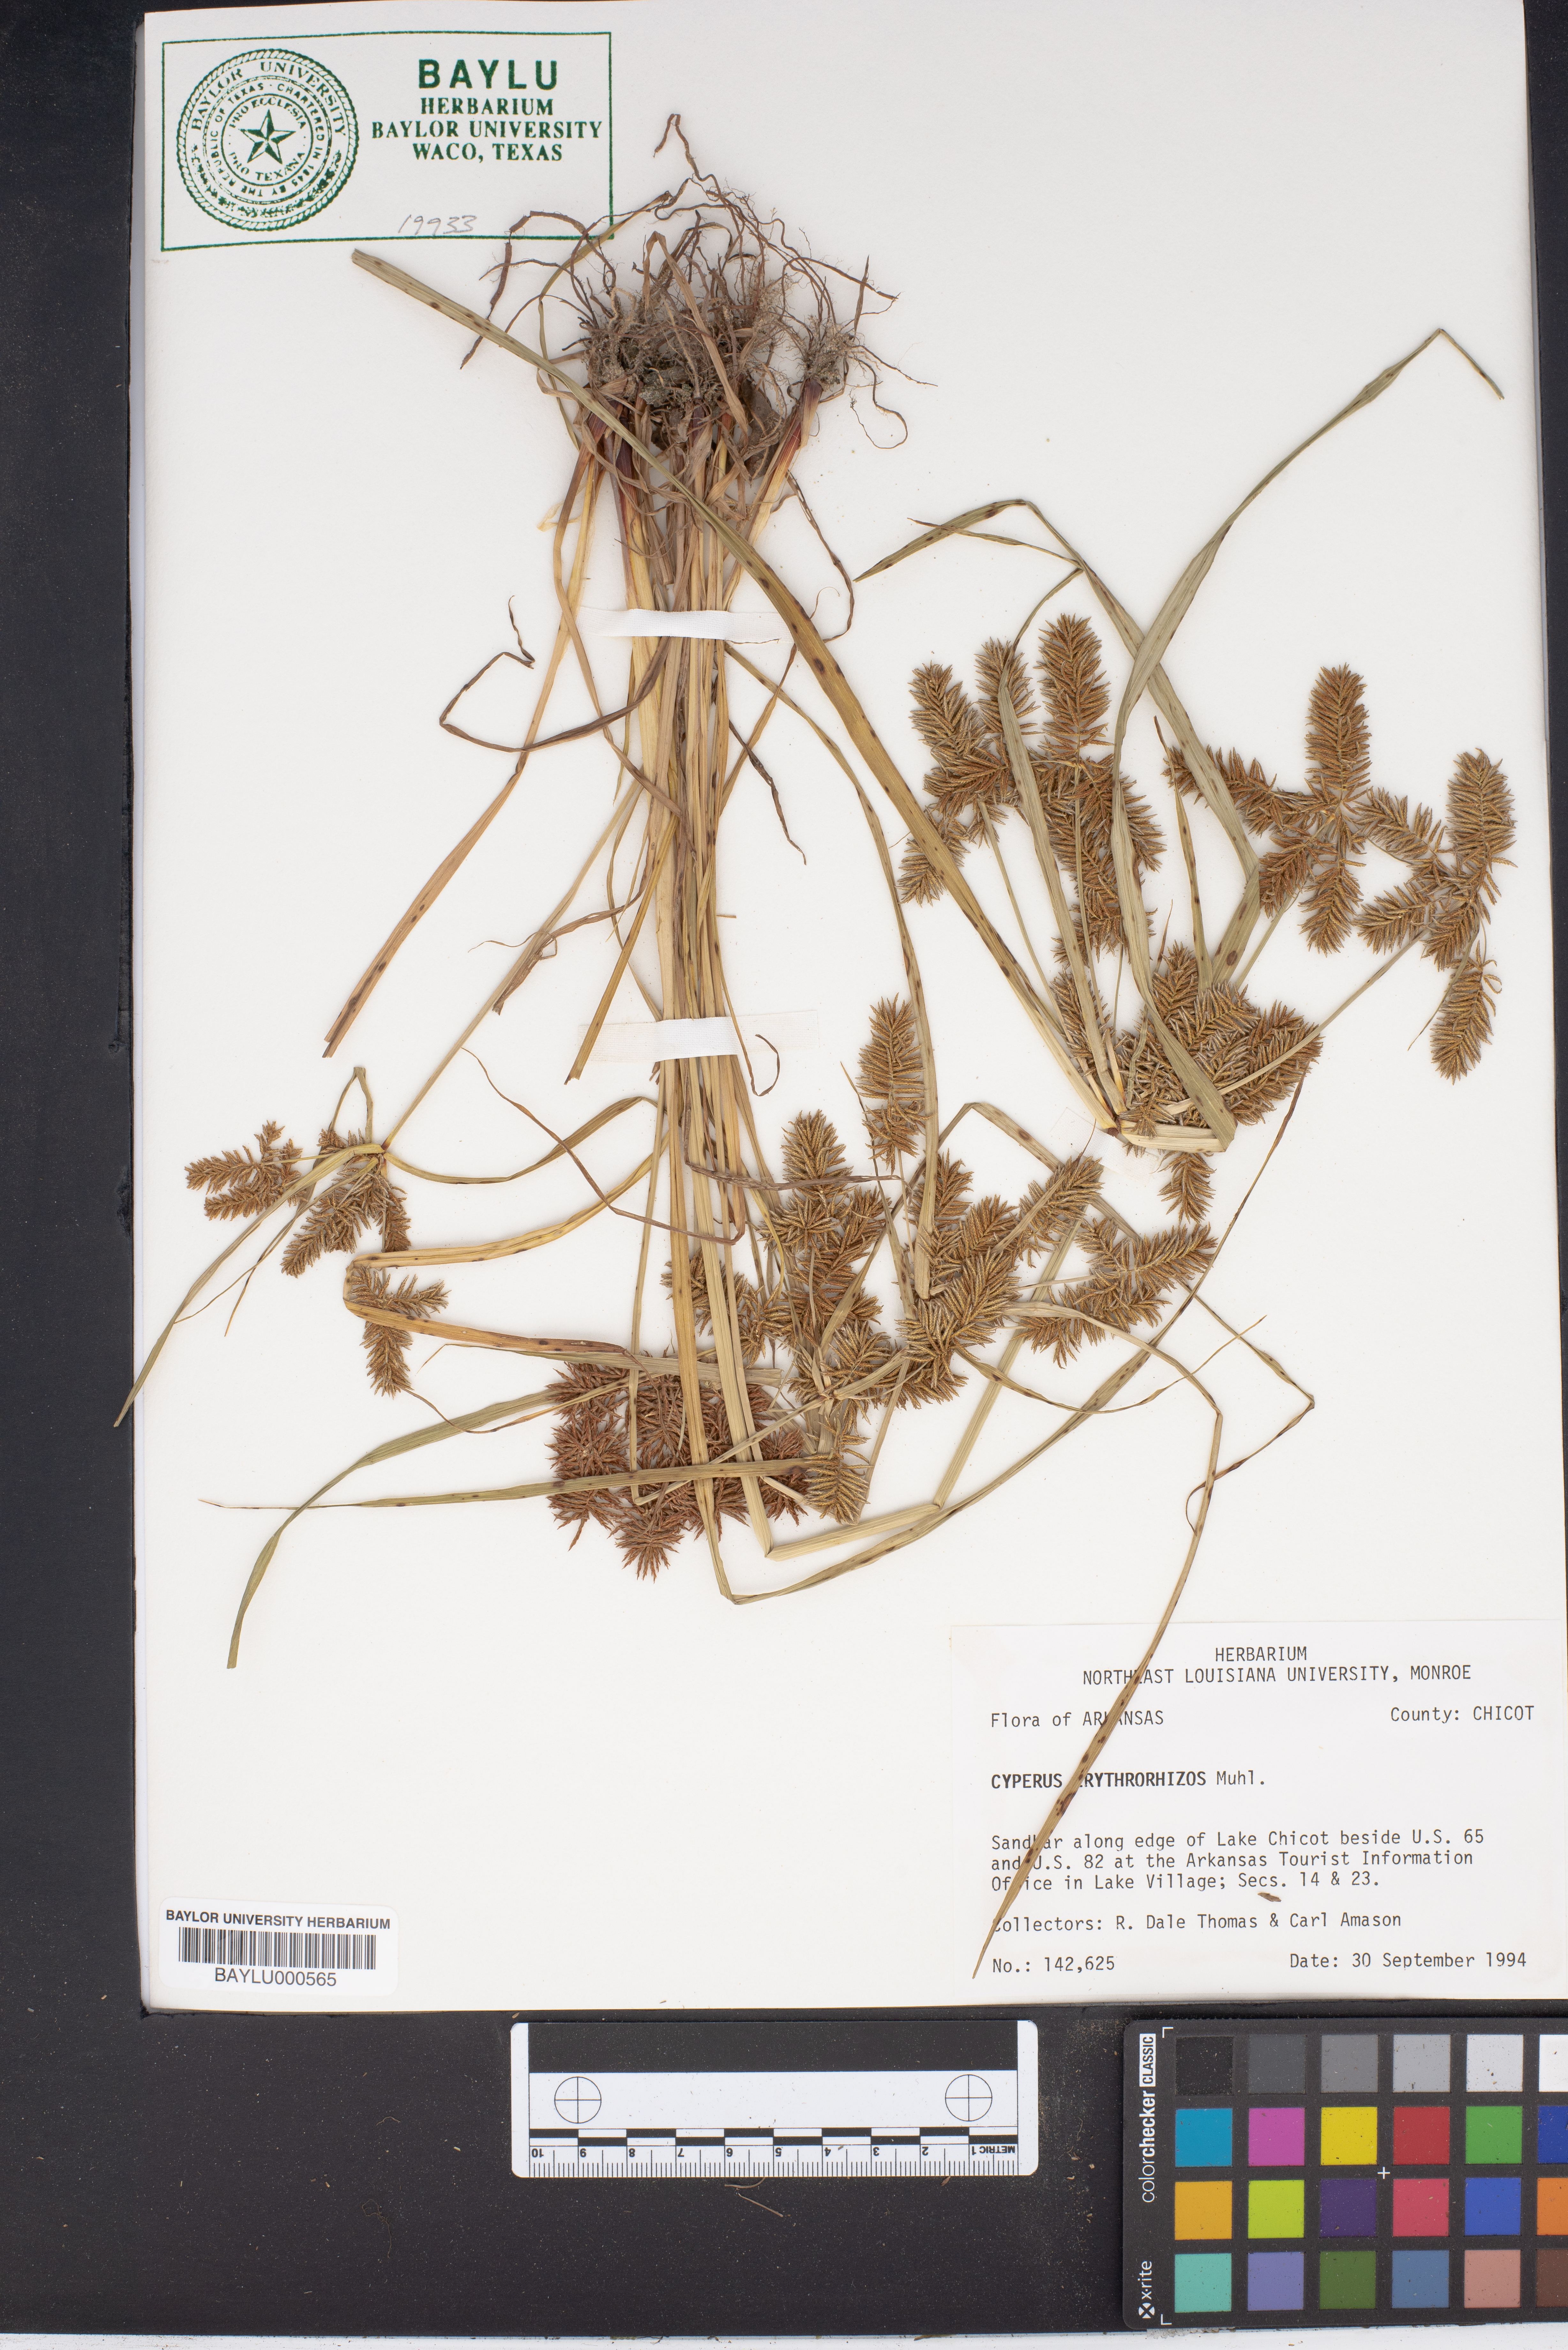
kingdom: Plantae
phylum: Tracheophyta
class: Liliopsida
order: Poales
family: Cyperaceae
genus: Cyperus
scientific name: Cyperus erythrorhizos
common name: Red-root flat sedge
